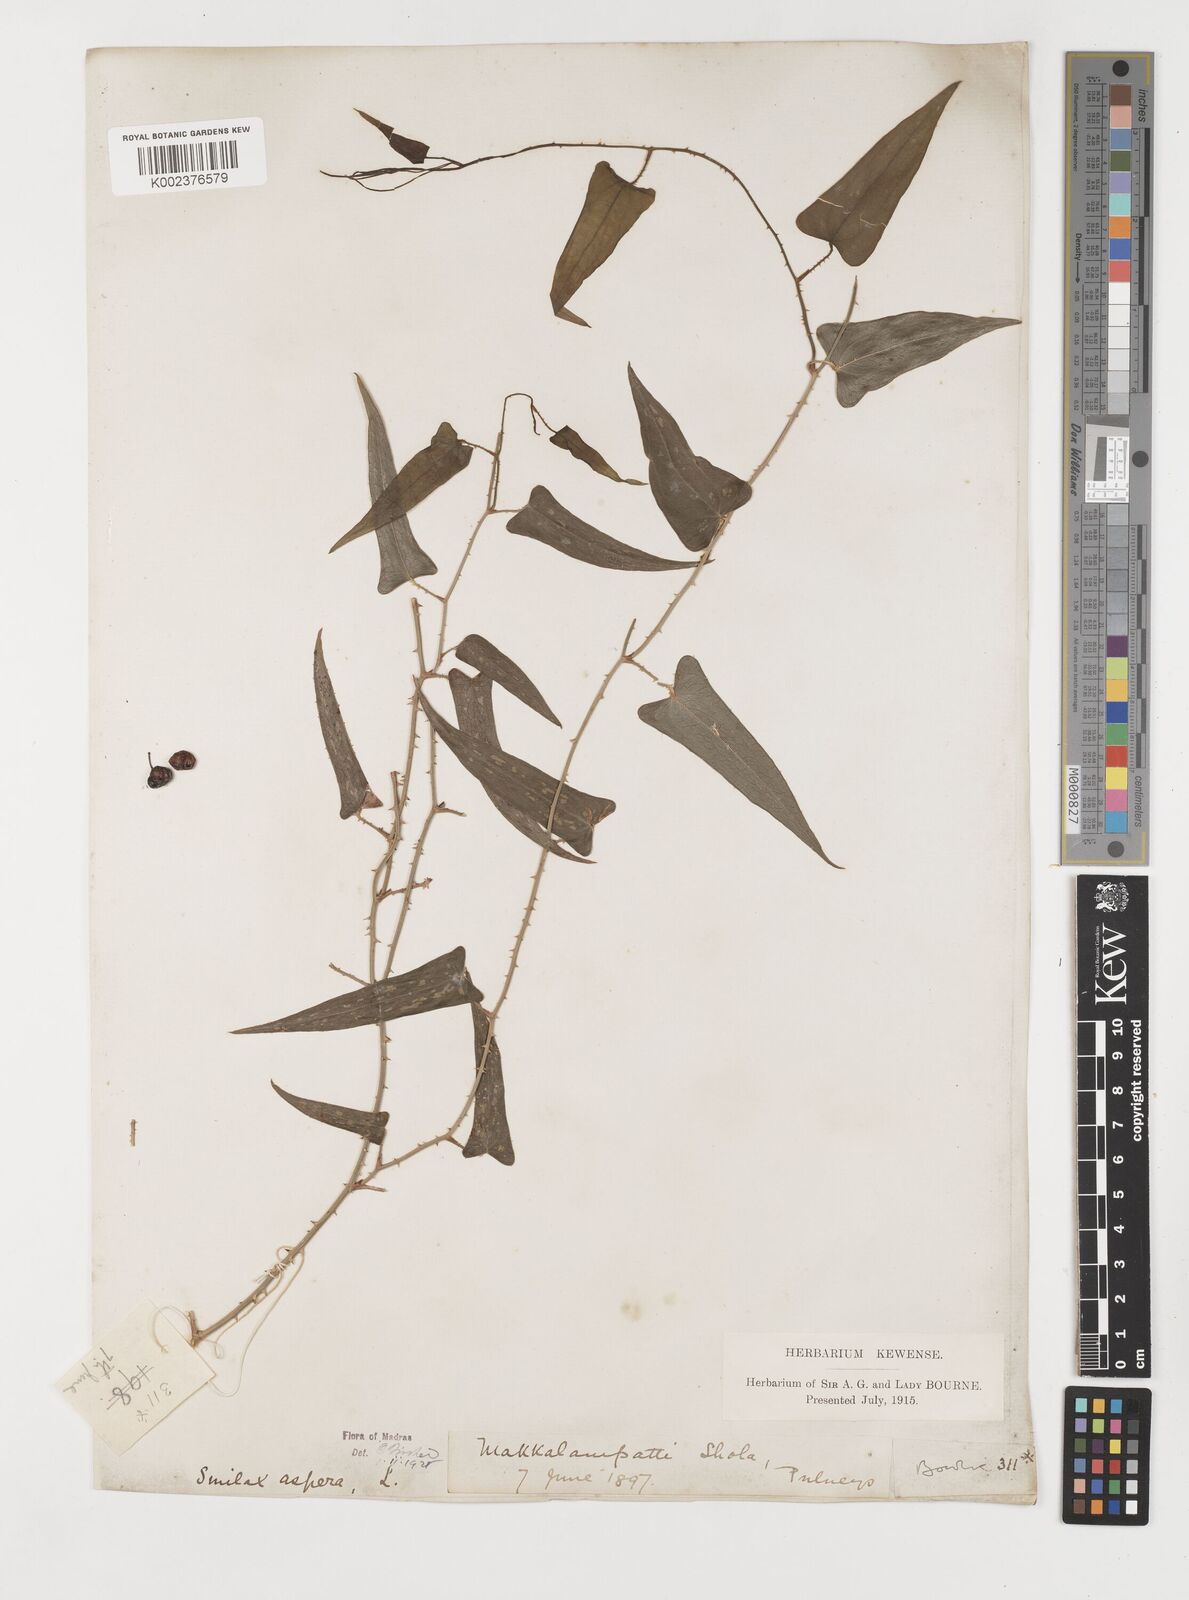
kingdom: Plantae
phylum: Tracheophyta
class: Liliopsida
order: Liliales
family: Smilacaceae
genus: Smilax
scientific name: Smilax aspera
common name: Common smilax
